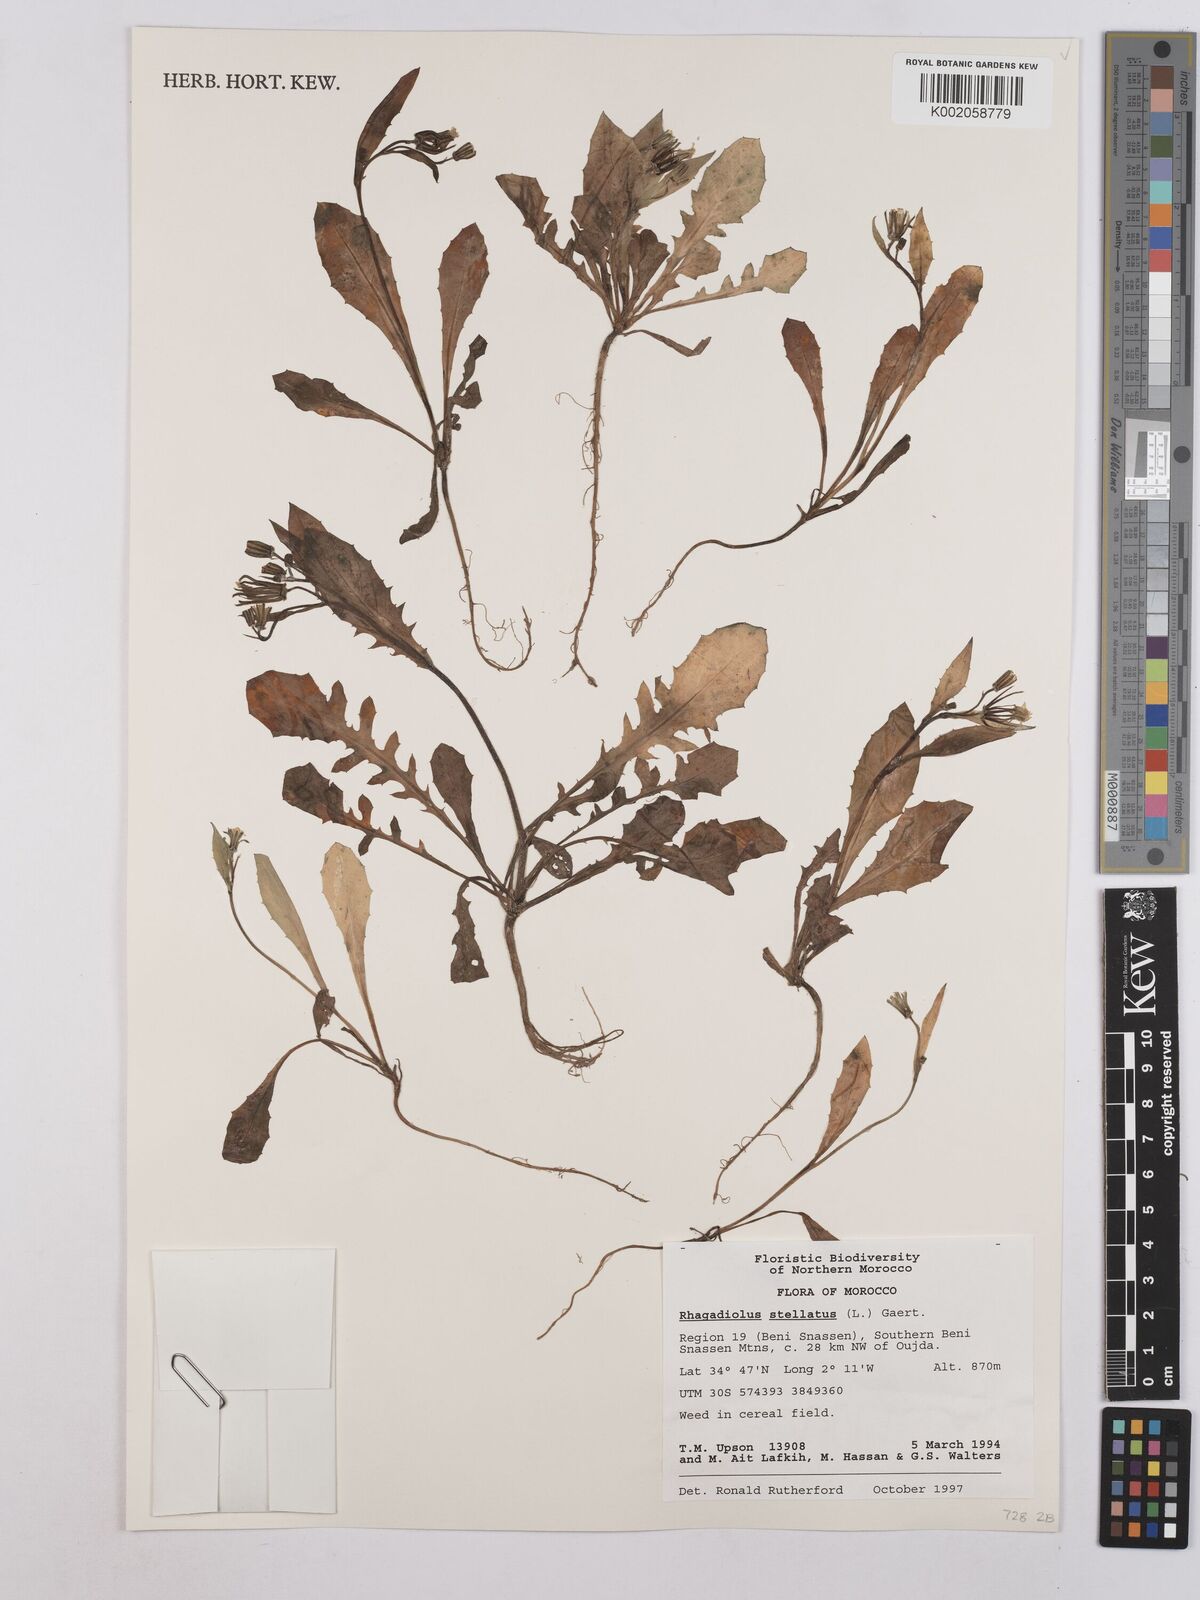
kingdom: Plantae
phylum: Tracheophyta
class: Magnoliopsida
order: Asterales
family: Asteraceae
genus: Rhagadiolus
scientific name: Rhagadiolus stellatus
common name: Star hawkbit
